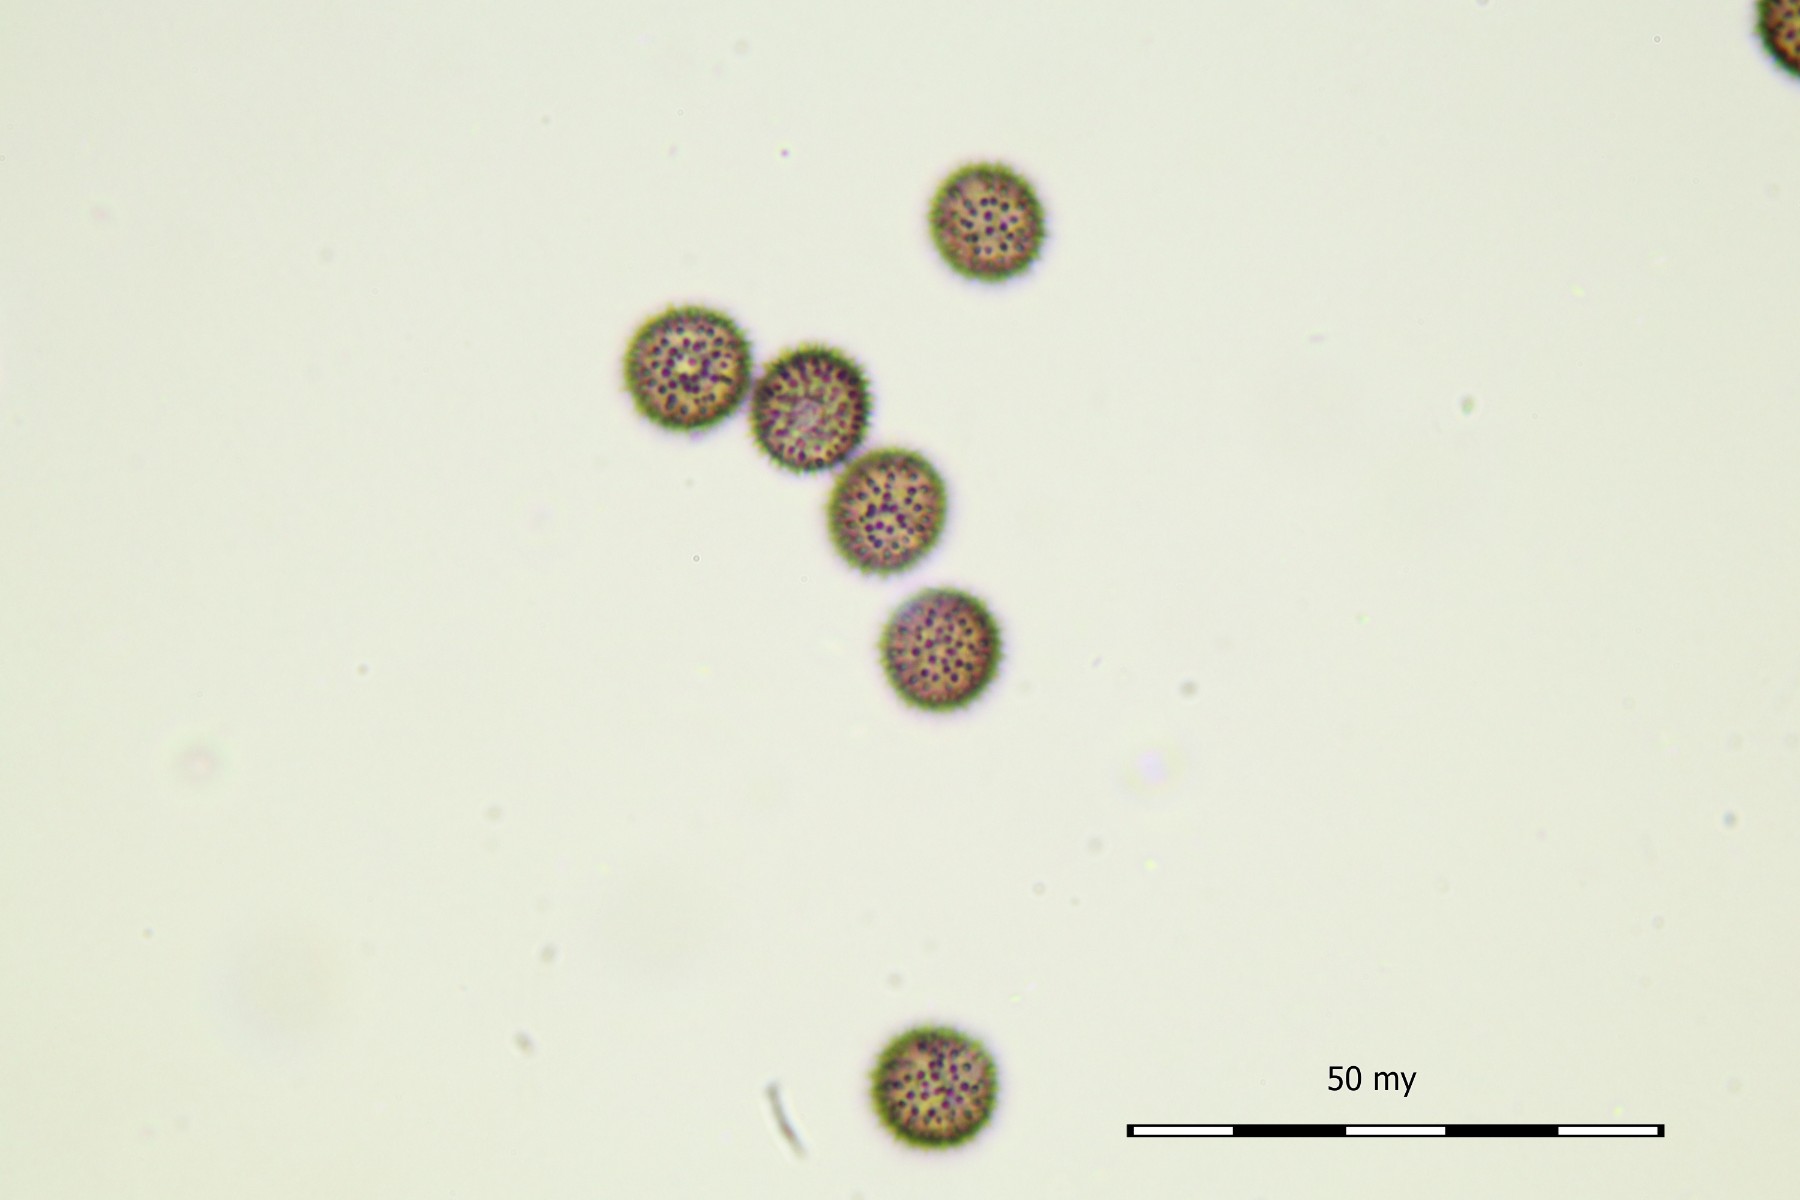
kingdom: Protozoa
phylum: Mycetozoa
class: Myxomycetes
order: Physarales
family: Physaraceae
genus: Physarum
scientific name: Physarum schroeteri
